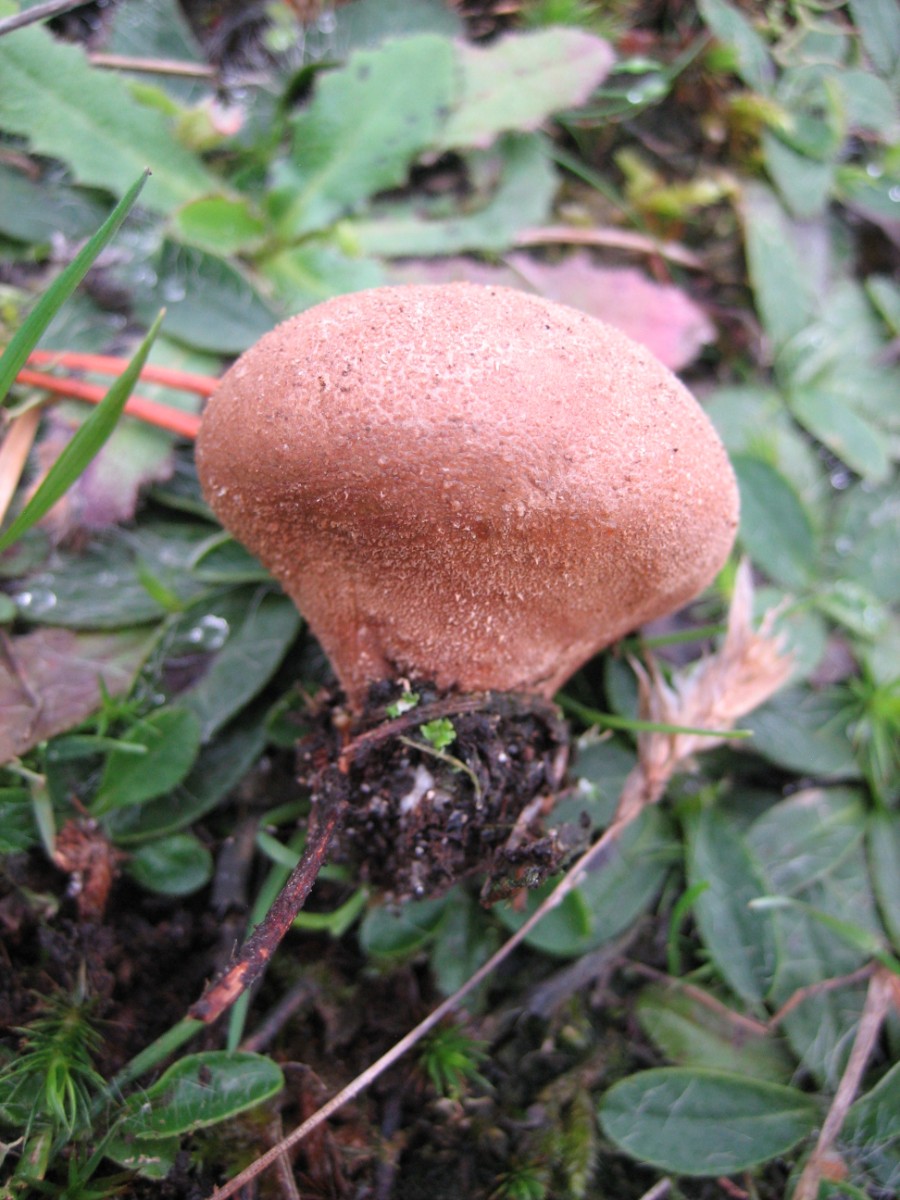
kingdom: Fungi
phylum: Basidiomycota
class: Agaricomycetes
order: Agaricales
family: Agaricaceae
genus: Lycoperdon
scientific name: Lycoperdon
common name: støvbold
